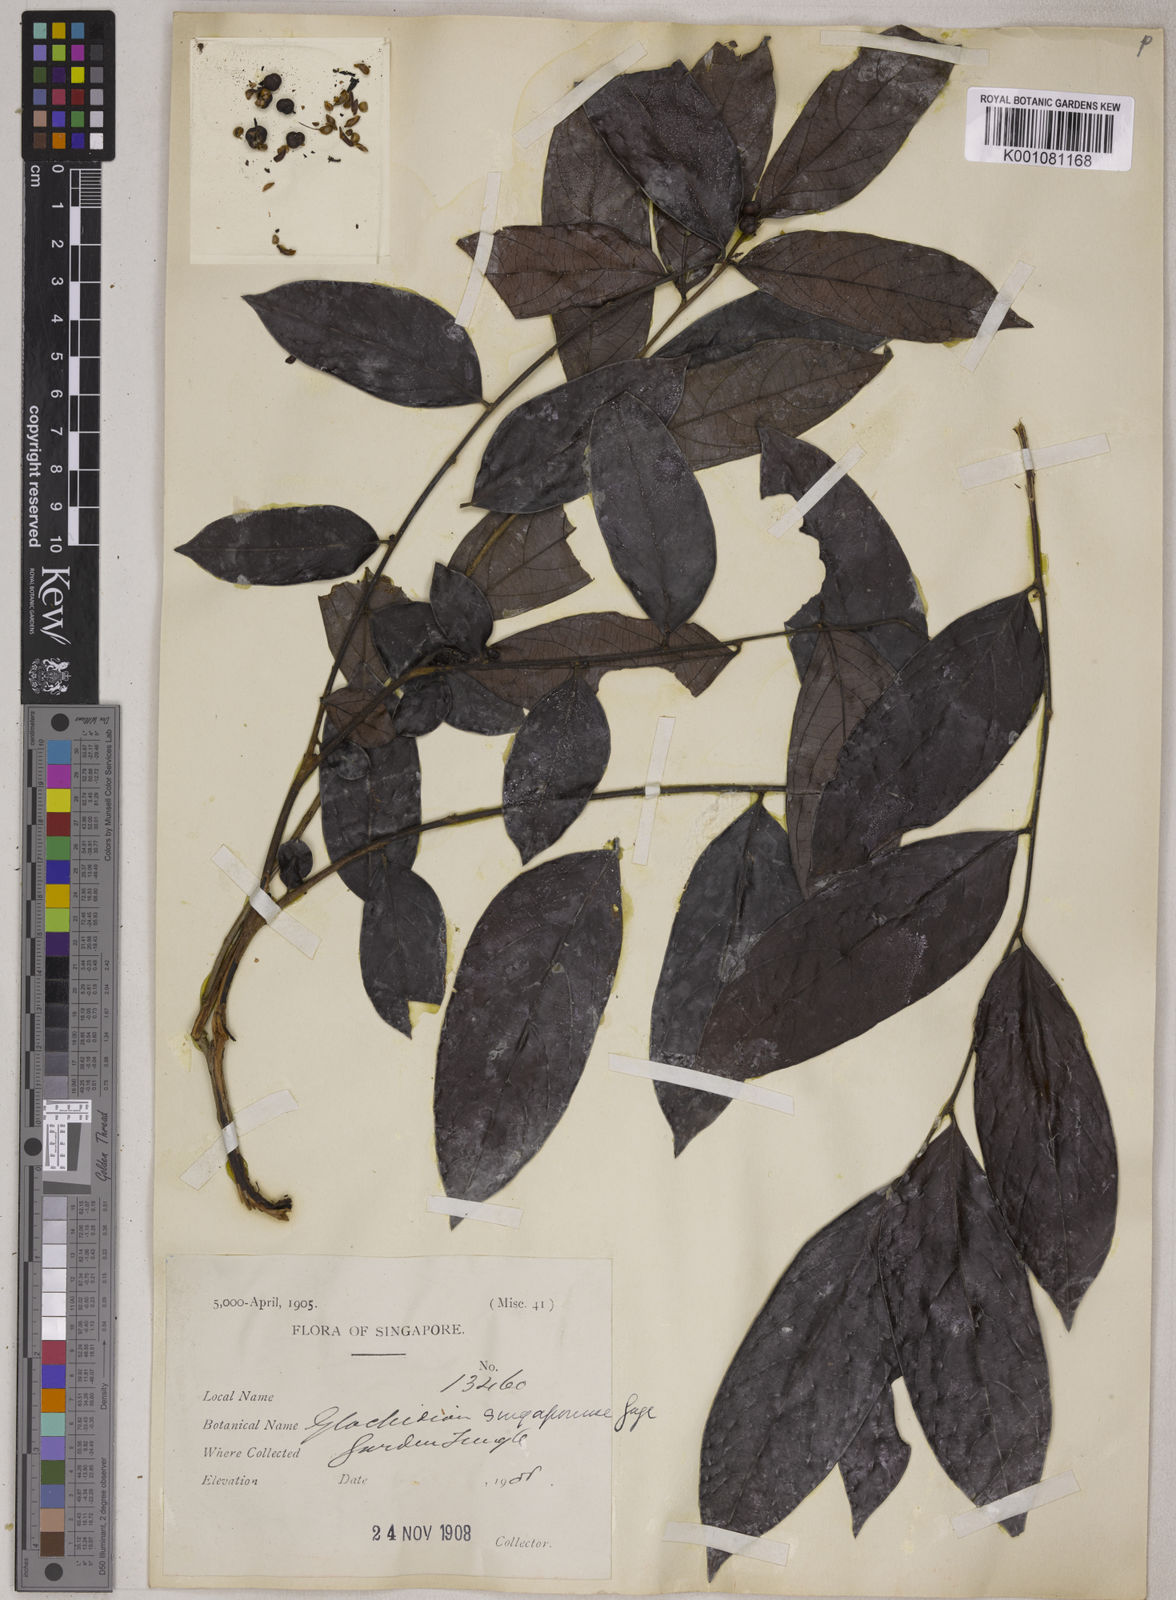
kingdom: Plantae
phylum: Tracheophyta
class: Magnoliopsida
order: Malpighiales
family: Phyllanthaceae
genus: Glochidion
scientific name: Glochidion singaporense
